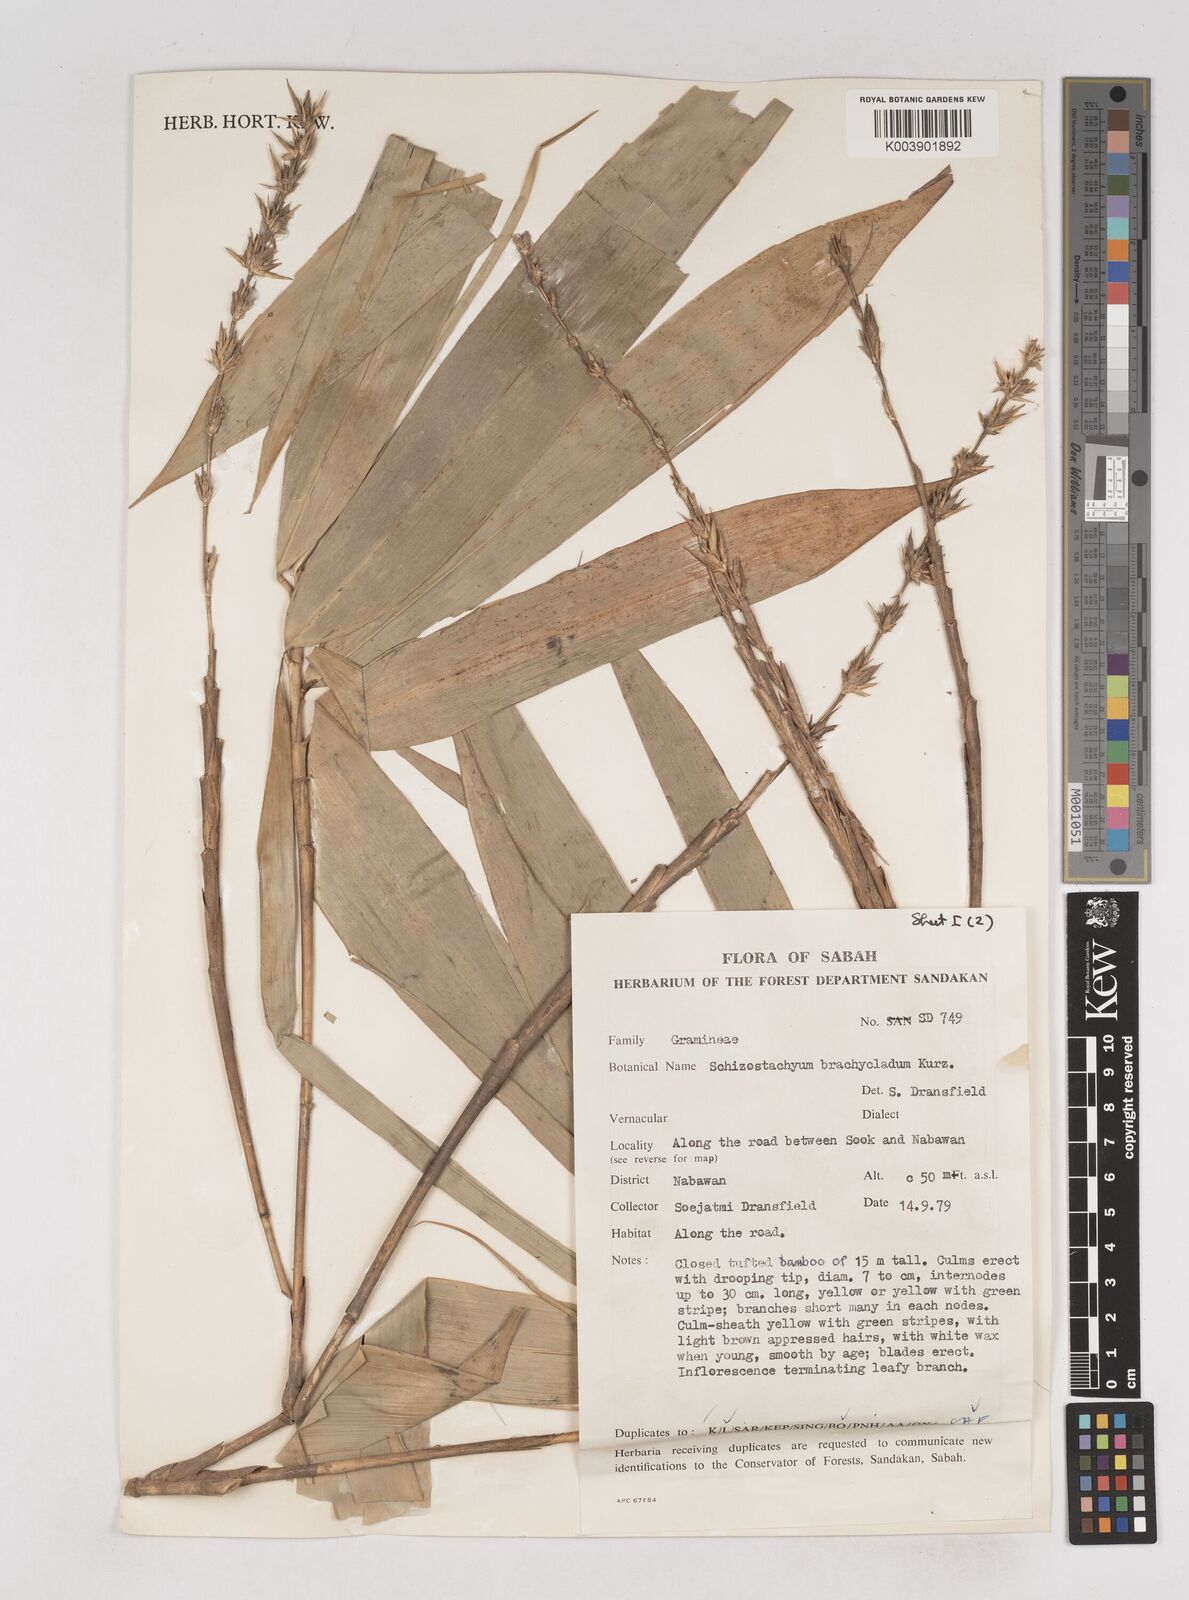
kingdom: Plantae
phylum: Tracheophyta
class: Liliopsida
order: Poales
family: Poaceae
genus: Schizostachyum
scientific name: Schizostachyum brachycladum
